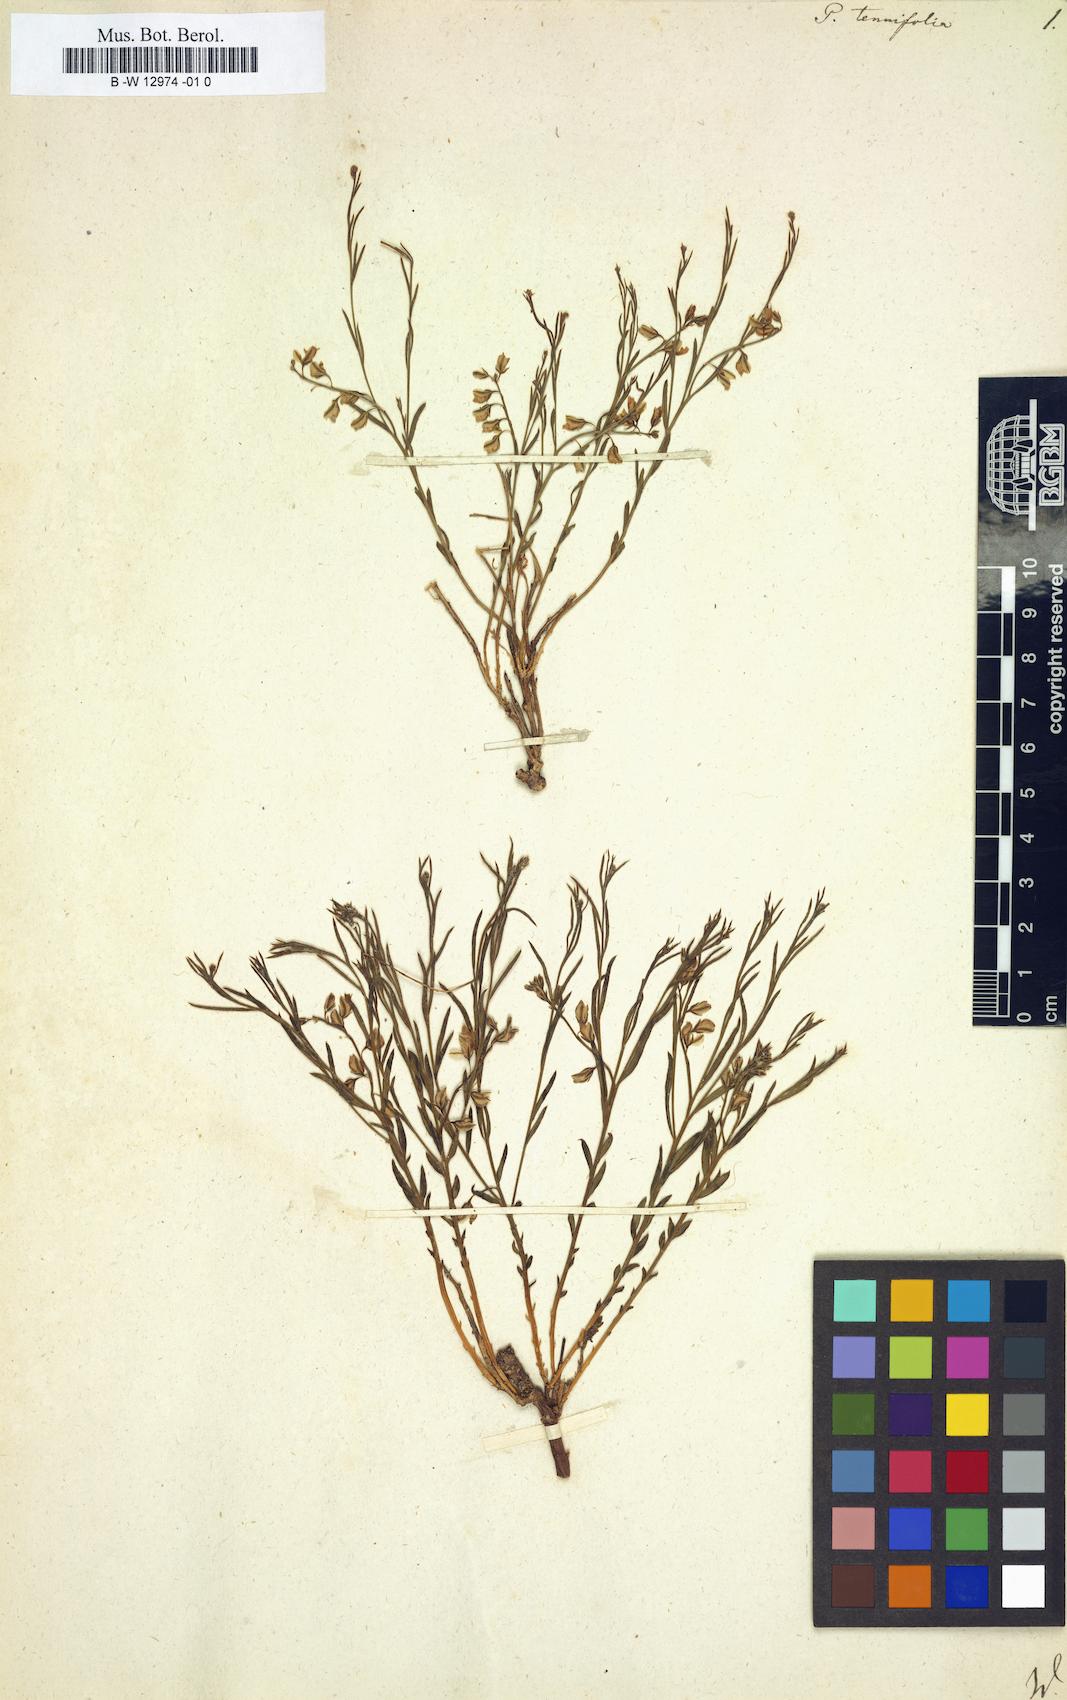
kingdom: Plantae
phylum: Tracheophyta
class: Magnoliopsida
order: Fabales
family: Polygalaceae
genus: Polygala
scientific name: Polygala tenuifolia
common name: Chinese senega-root
